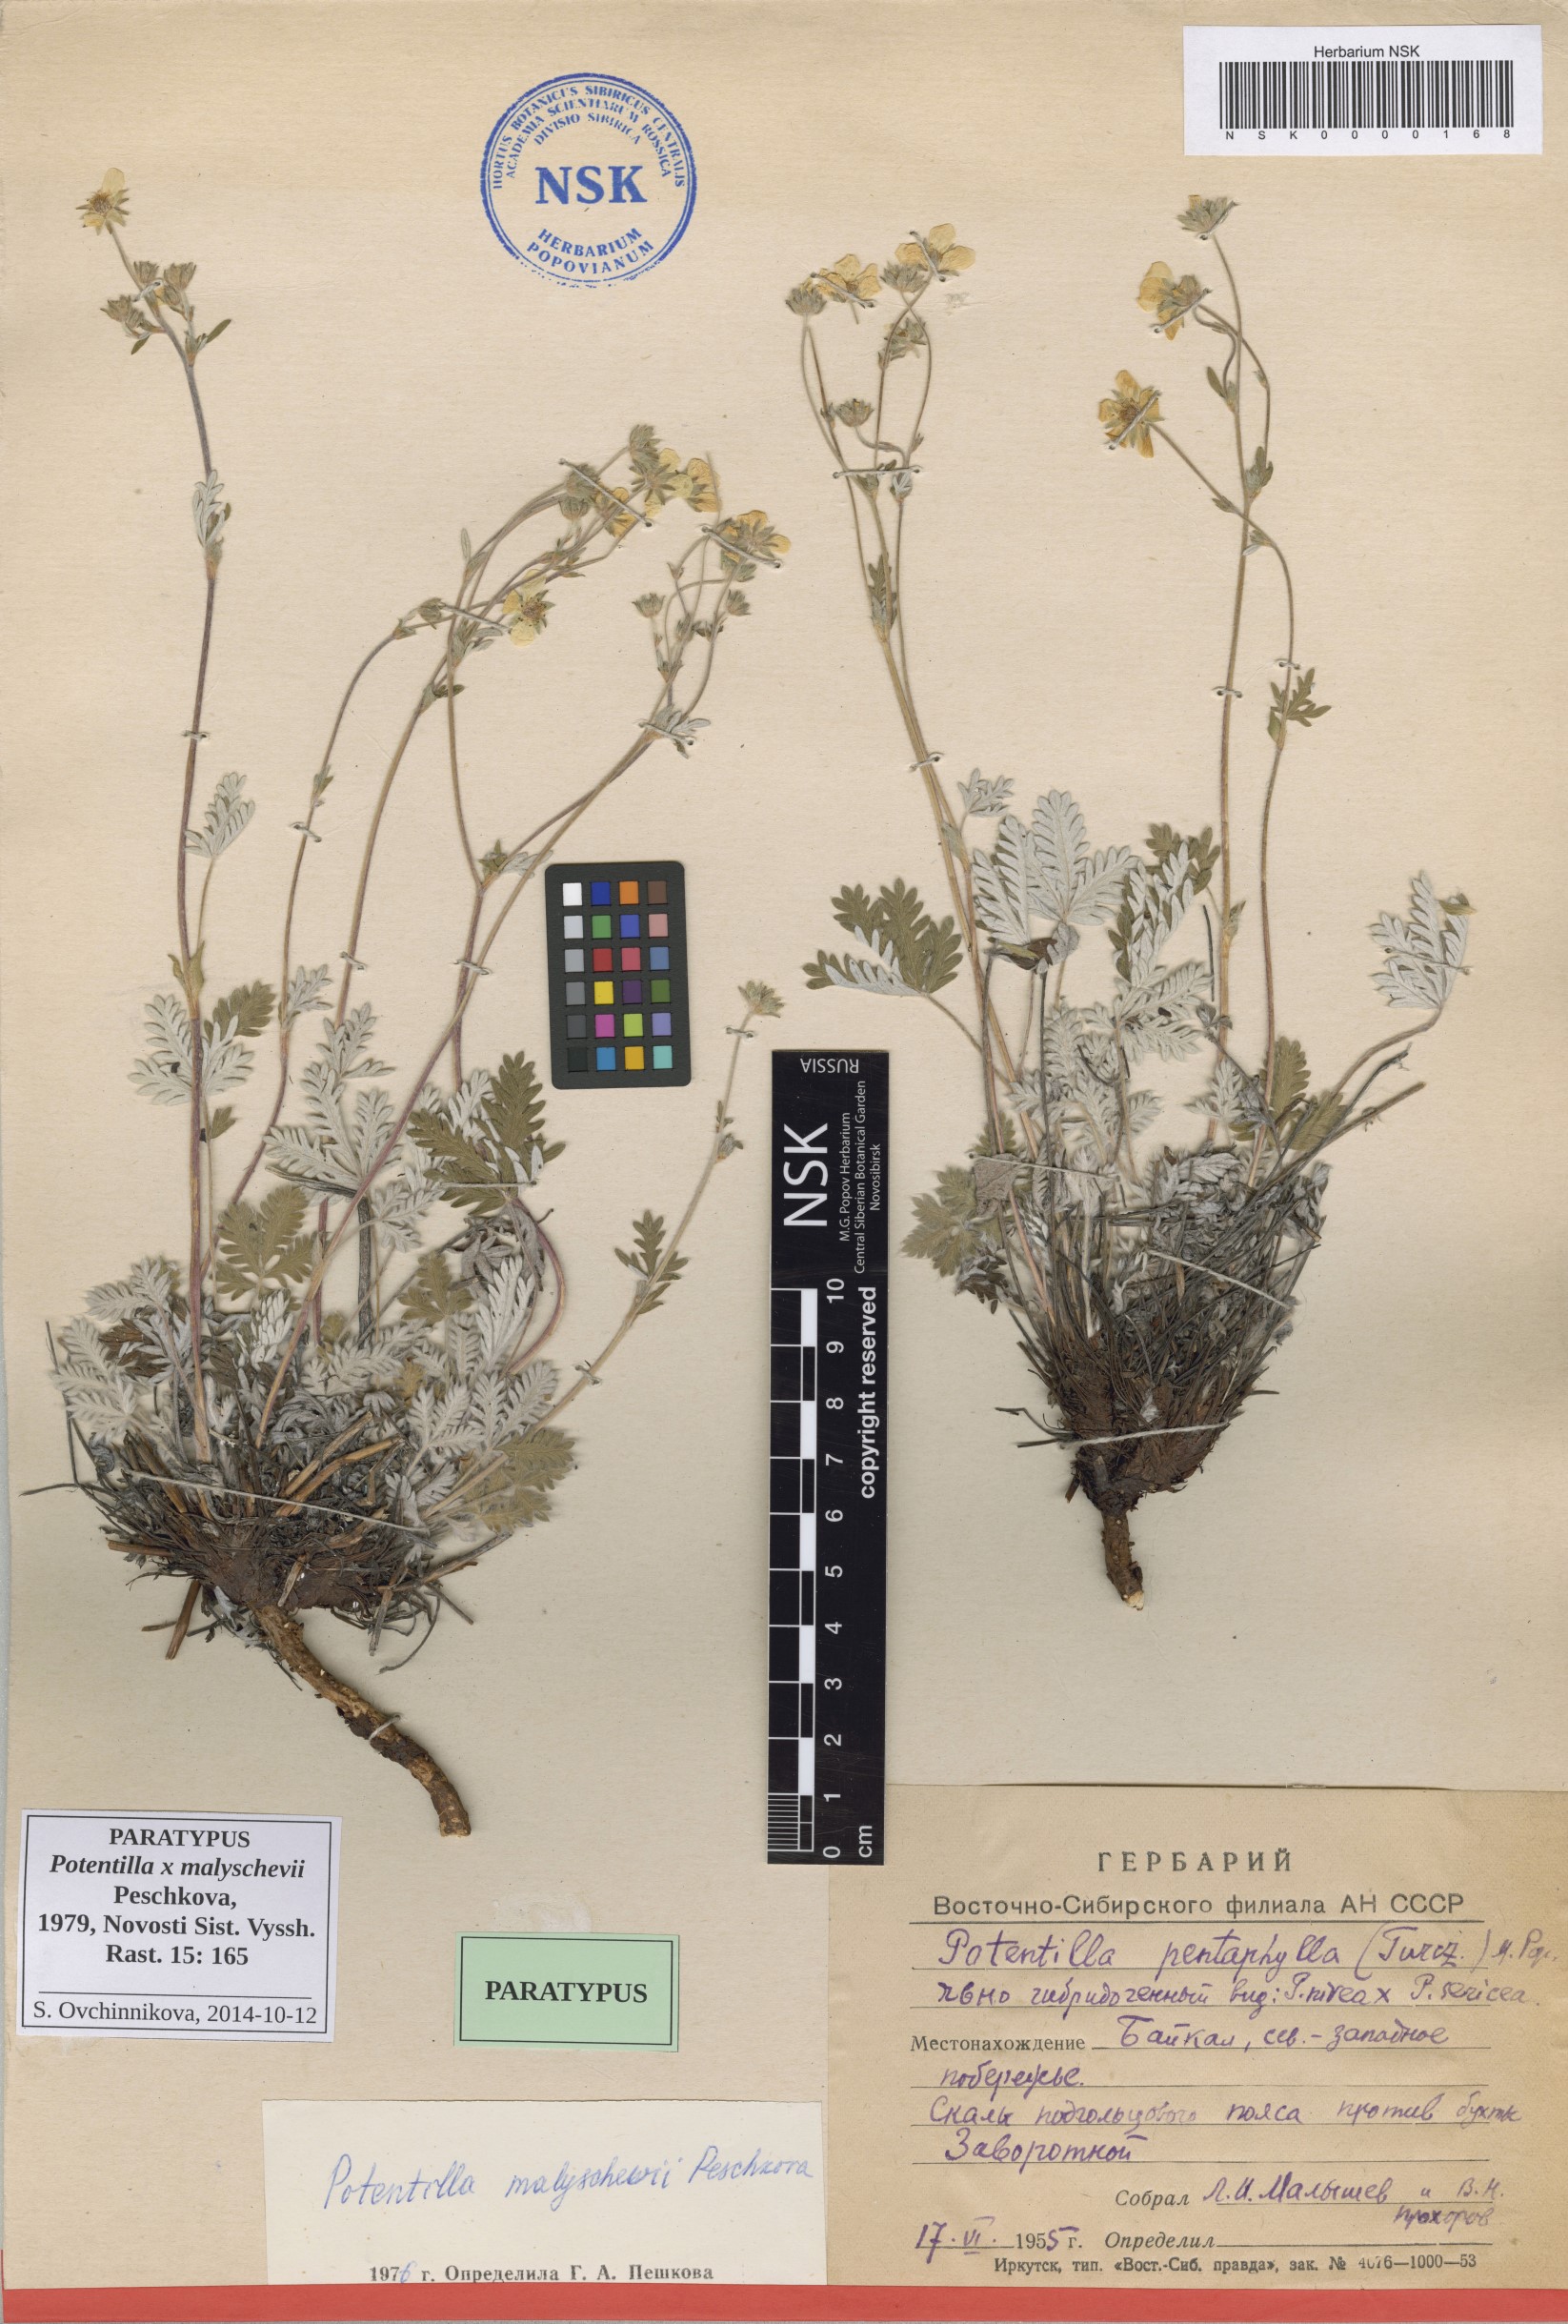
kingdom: Plantae
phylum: Tracheophyta
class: Magnoliopsida
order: Rosales
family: Rosaceae
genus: Potentilla
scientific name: Potentilla chionea
